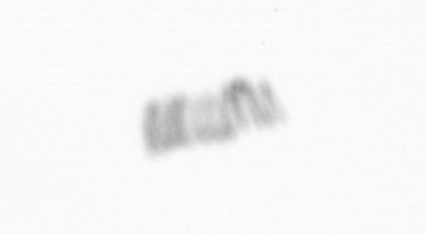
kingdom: Chromista
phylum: Ochrophyta
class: Bacillariophyceae
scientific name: Bacillariophyceae
